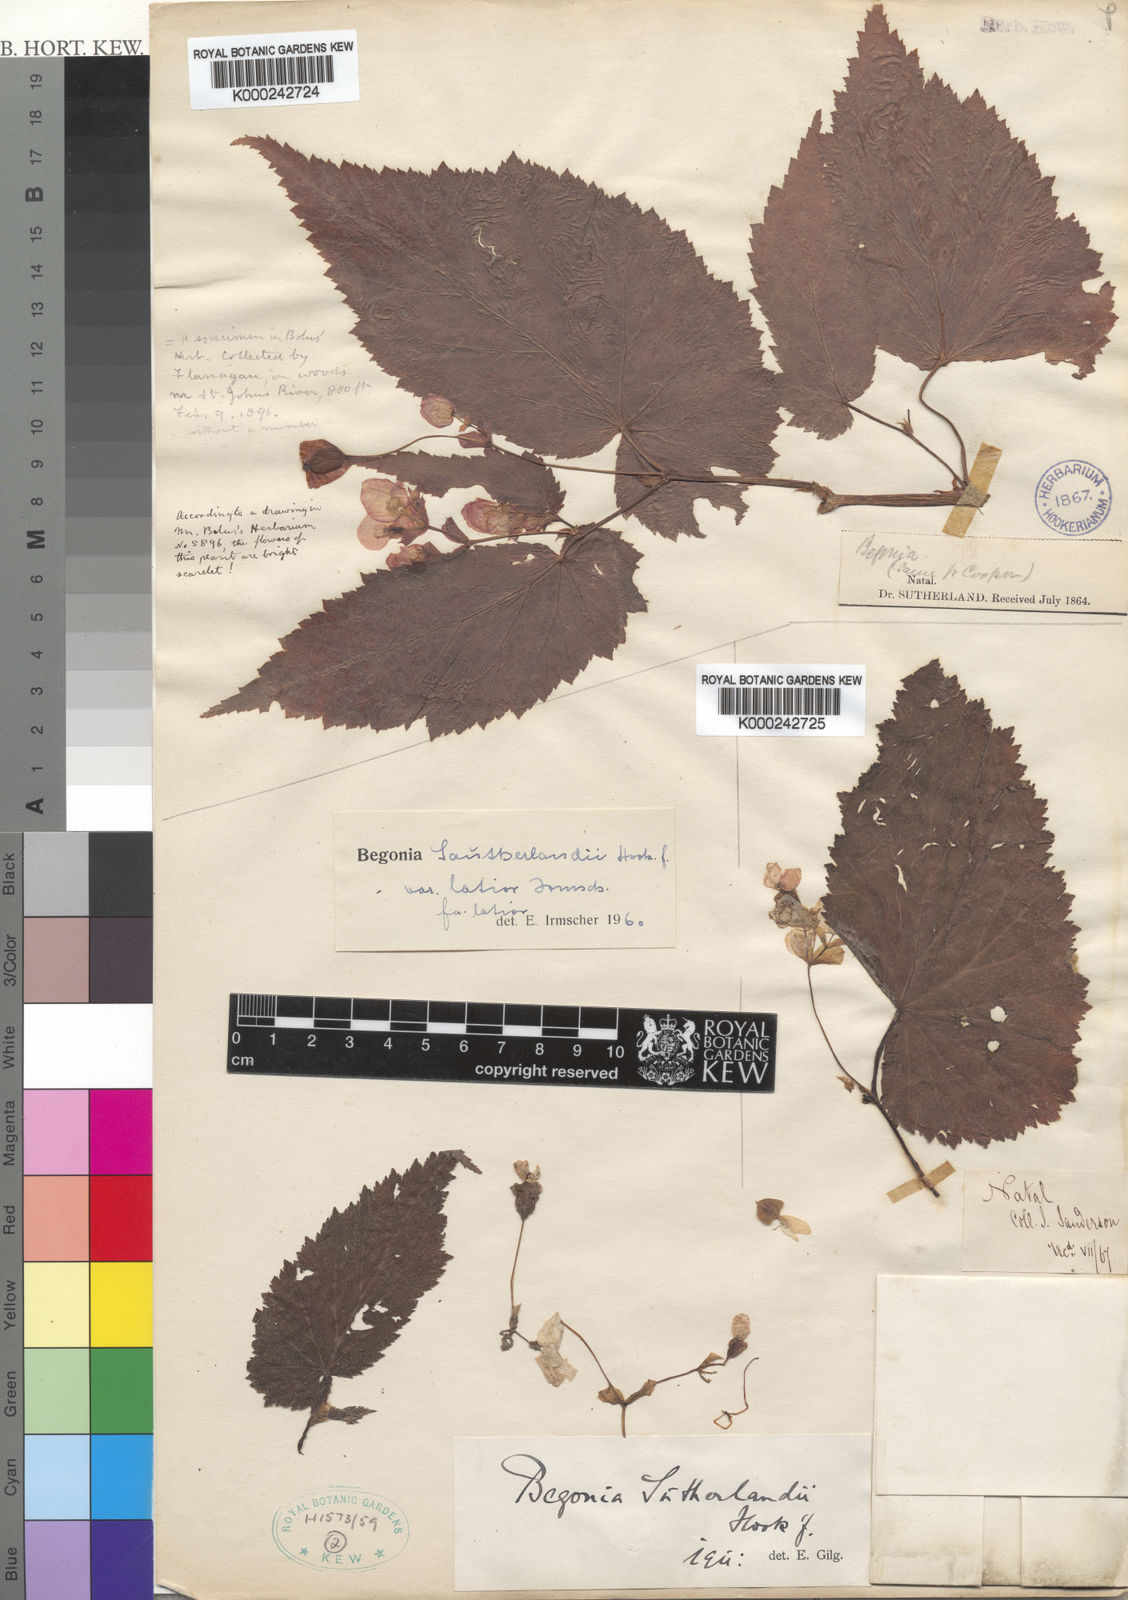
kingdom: Plantae
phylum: Tracheophyta
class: Magnoliopsida
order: Cucurbitales
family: Begoniaceae
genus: Begonia
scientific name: Begonia sutherlandii
